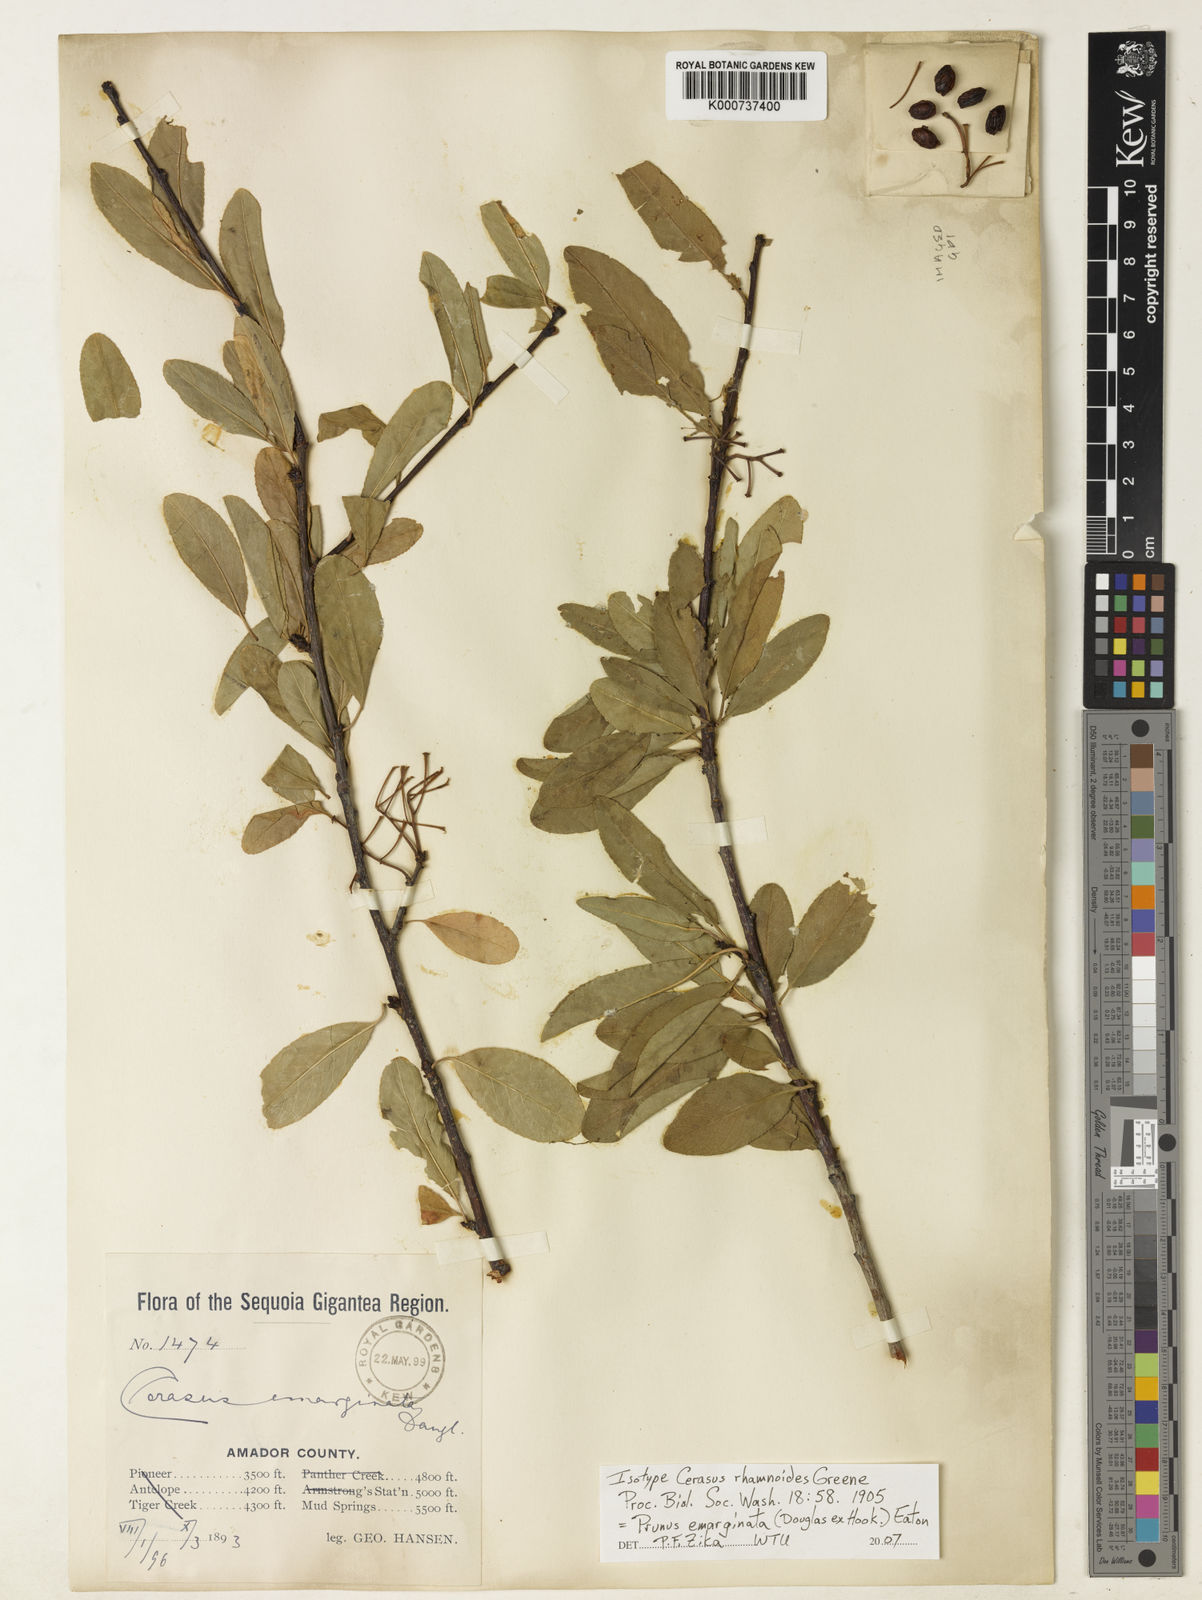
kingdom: Plantae
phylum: Tracheophyta
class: Magnoliopsida
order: Rosales
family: Rosaceae
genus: Prunus
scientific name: Prunus emarginata
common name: Bitter cherry
